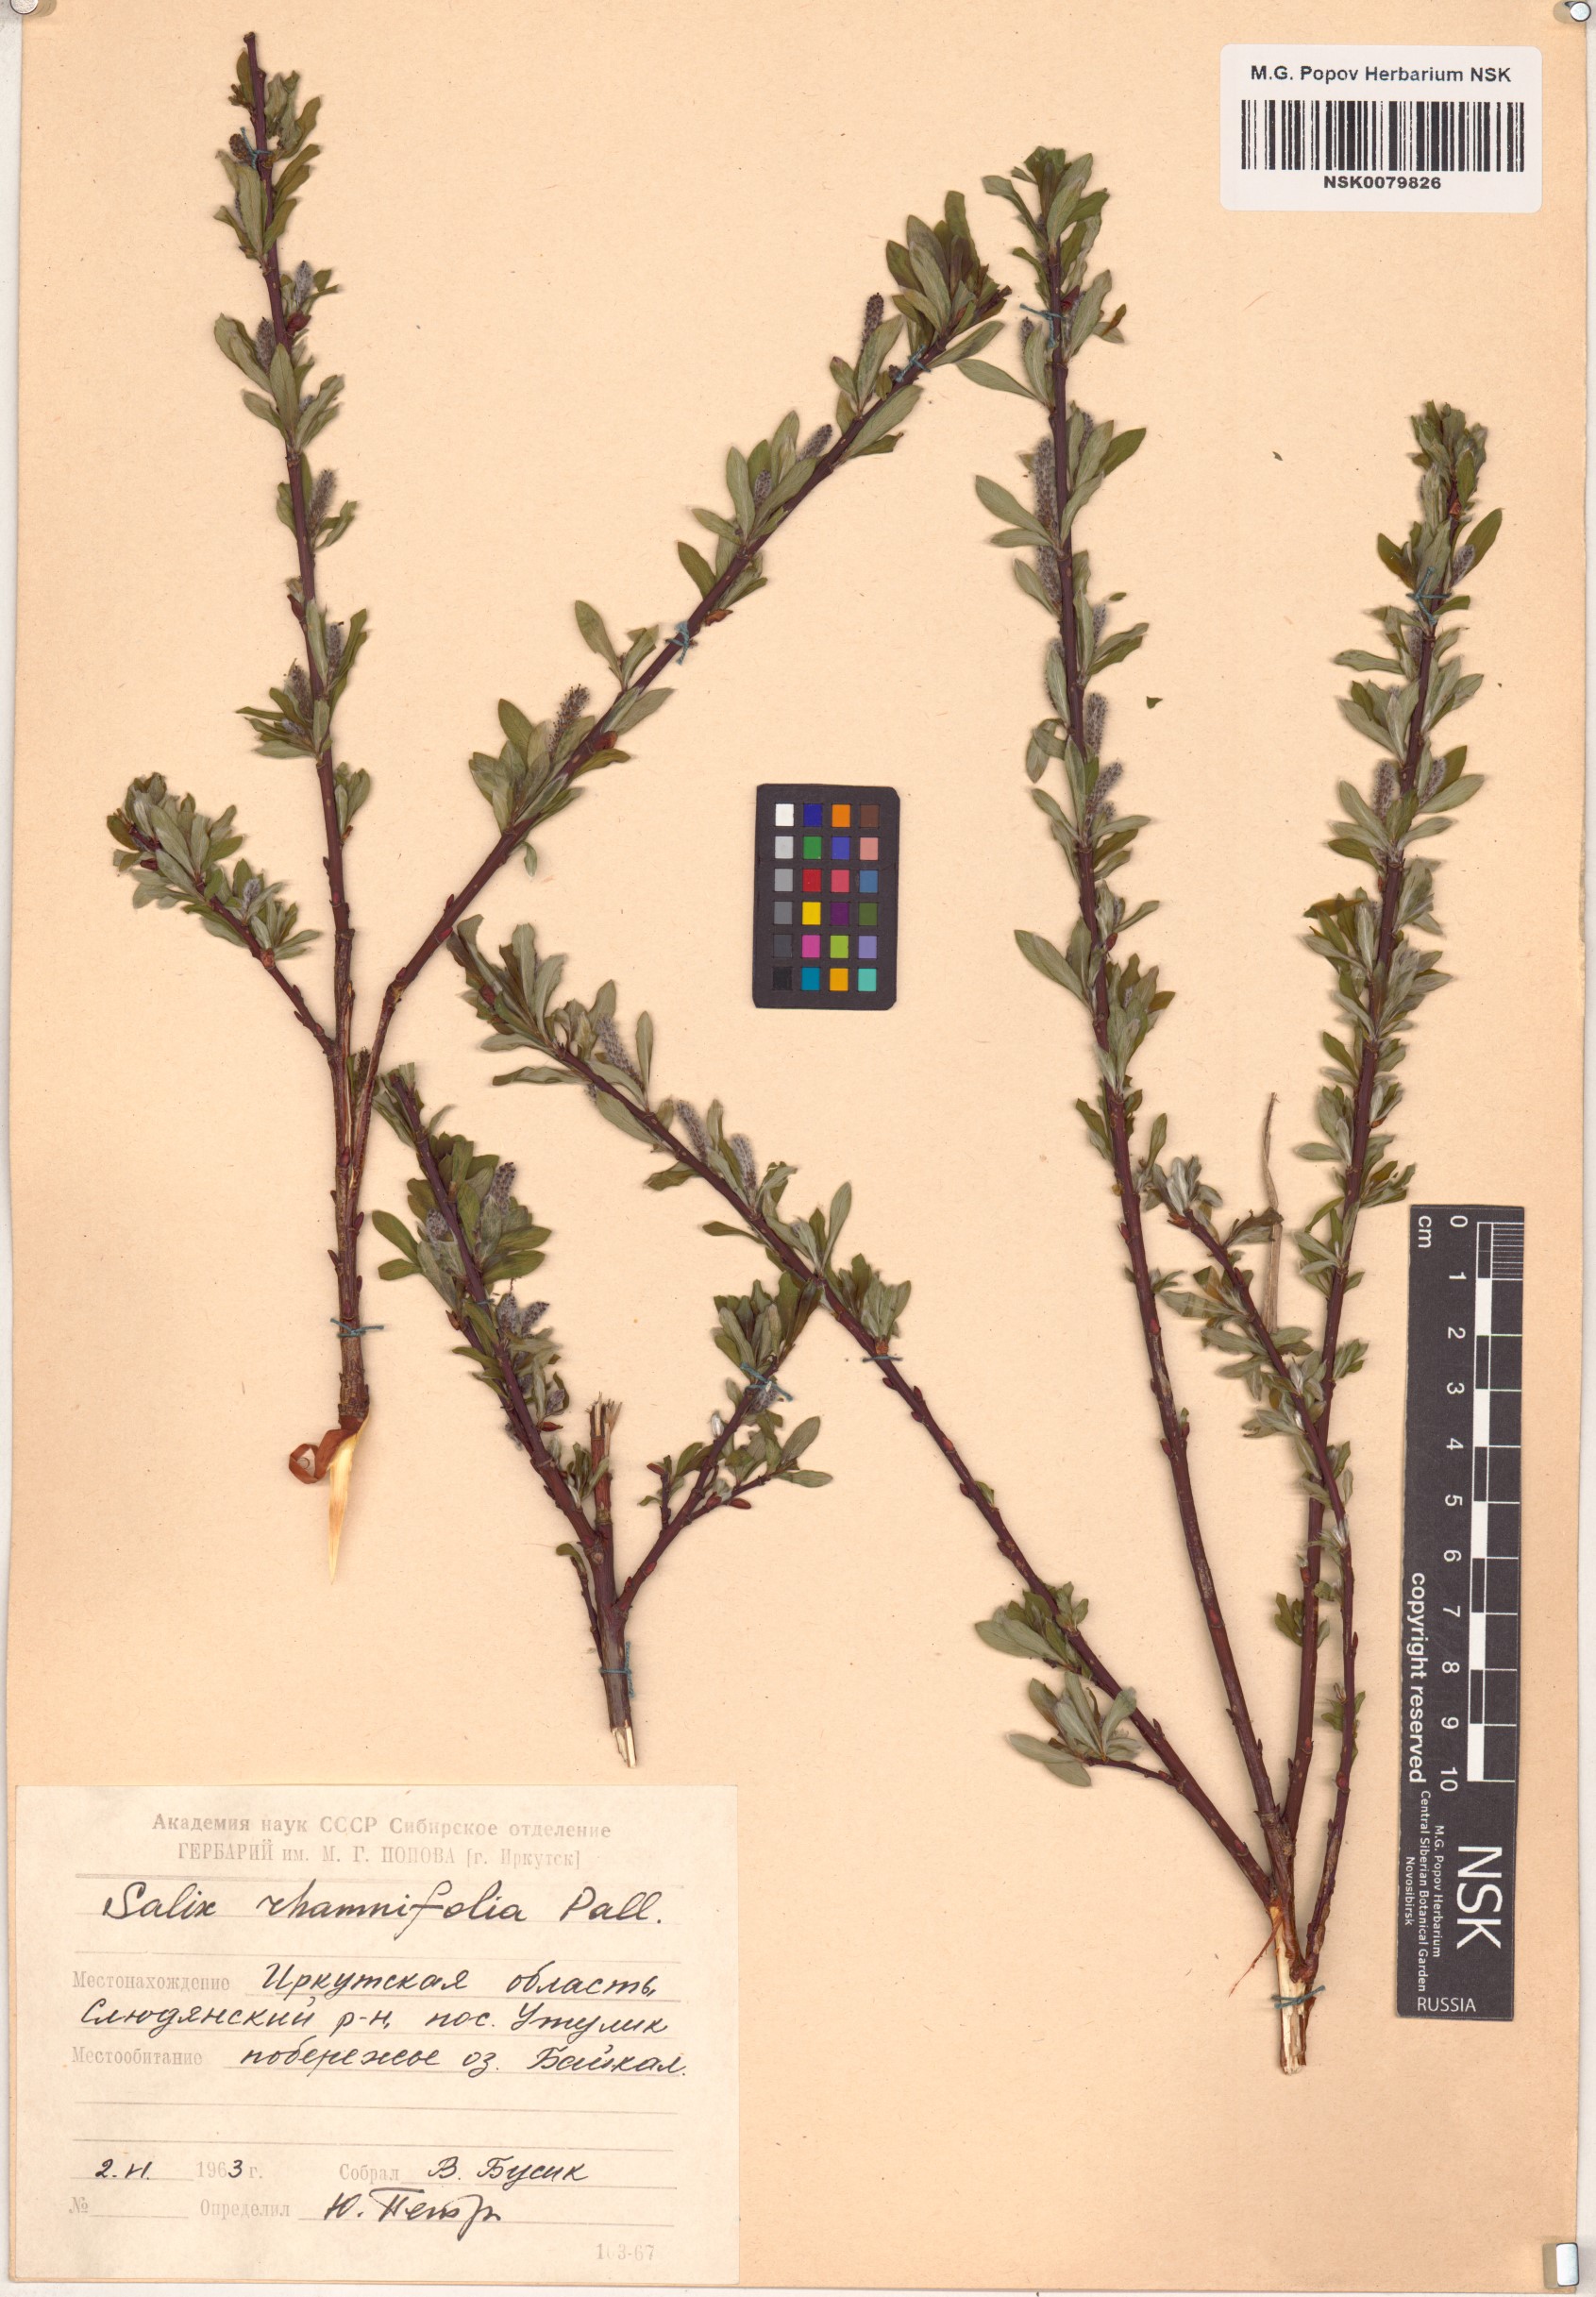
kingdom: Plantae
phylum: Tracheophyta
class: Magnoliopsida
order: Malpighiales
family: Salicaceae
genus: Salix
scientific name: Salix rhamnifolia
